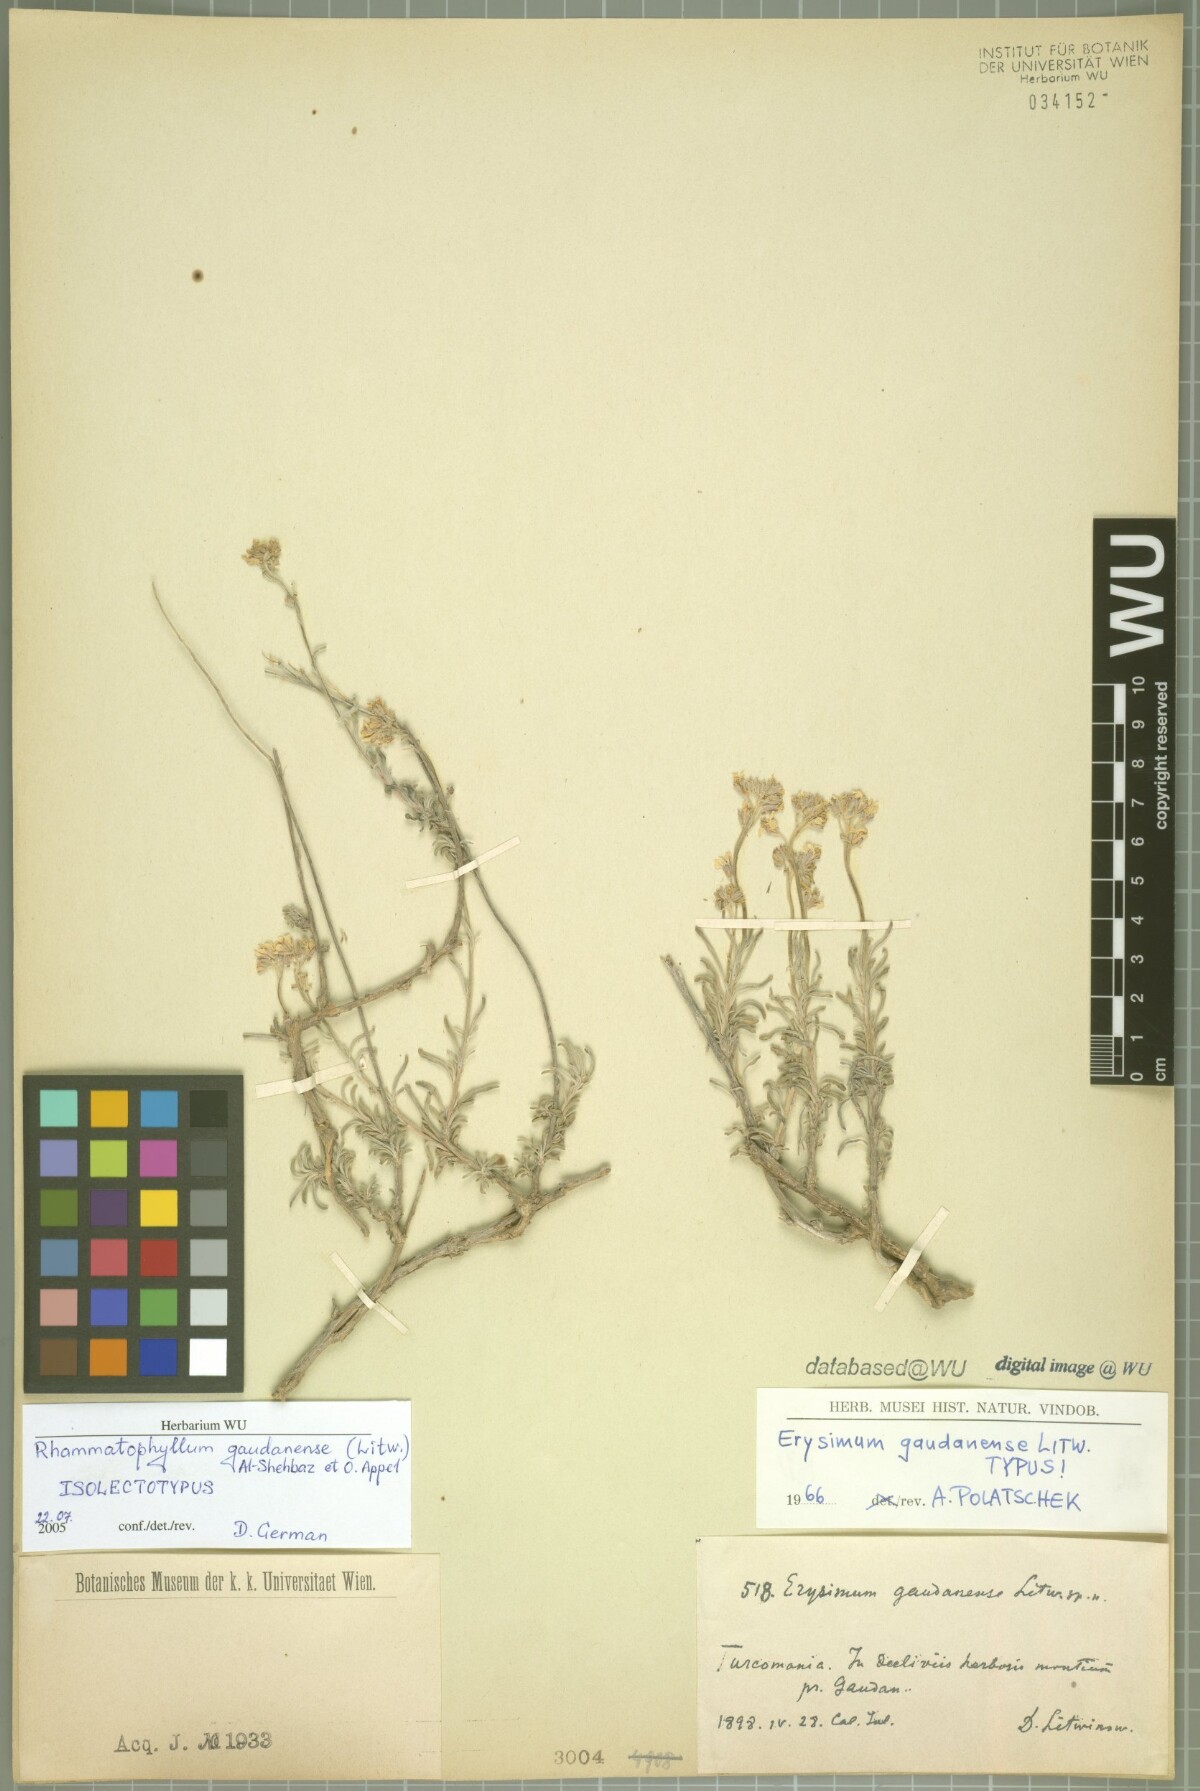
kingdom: Plantae
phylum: Tracheophyta
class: Magnoliopsida
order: Brassicales
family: Brassicaceae
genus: Rhammatophyllum
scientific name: Rhammatophyllum gaudanense
